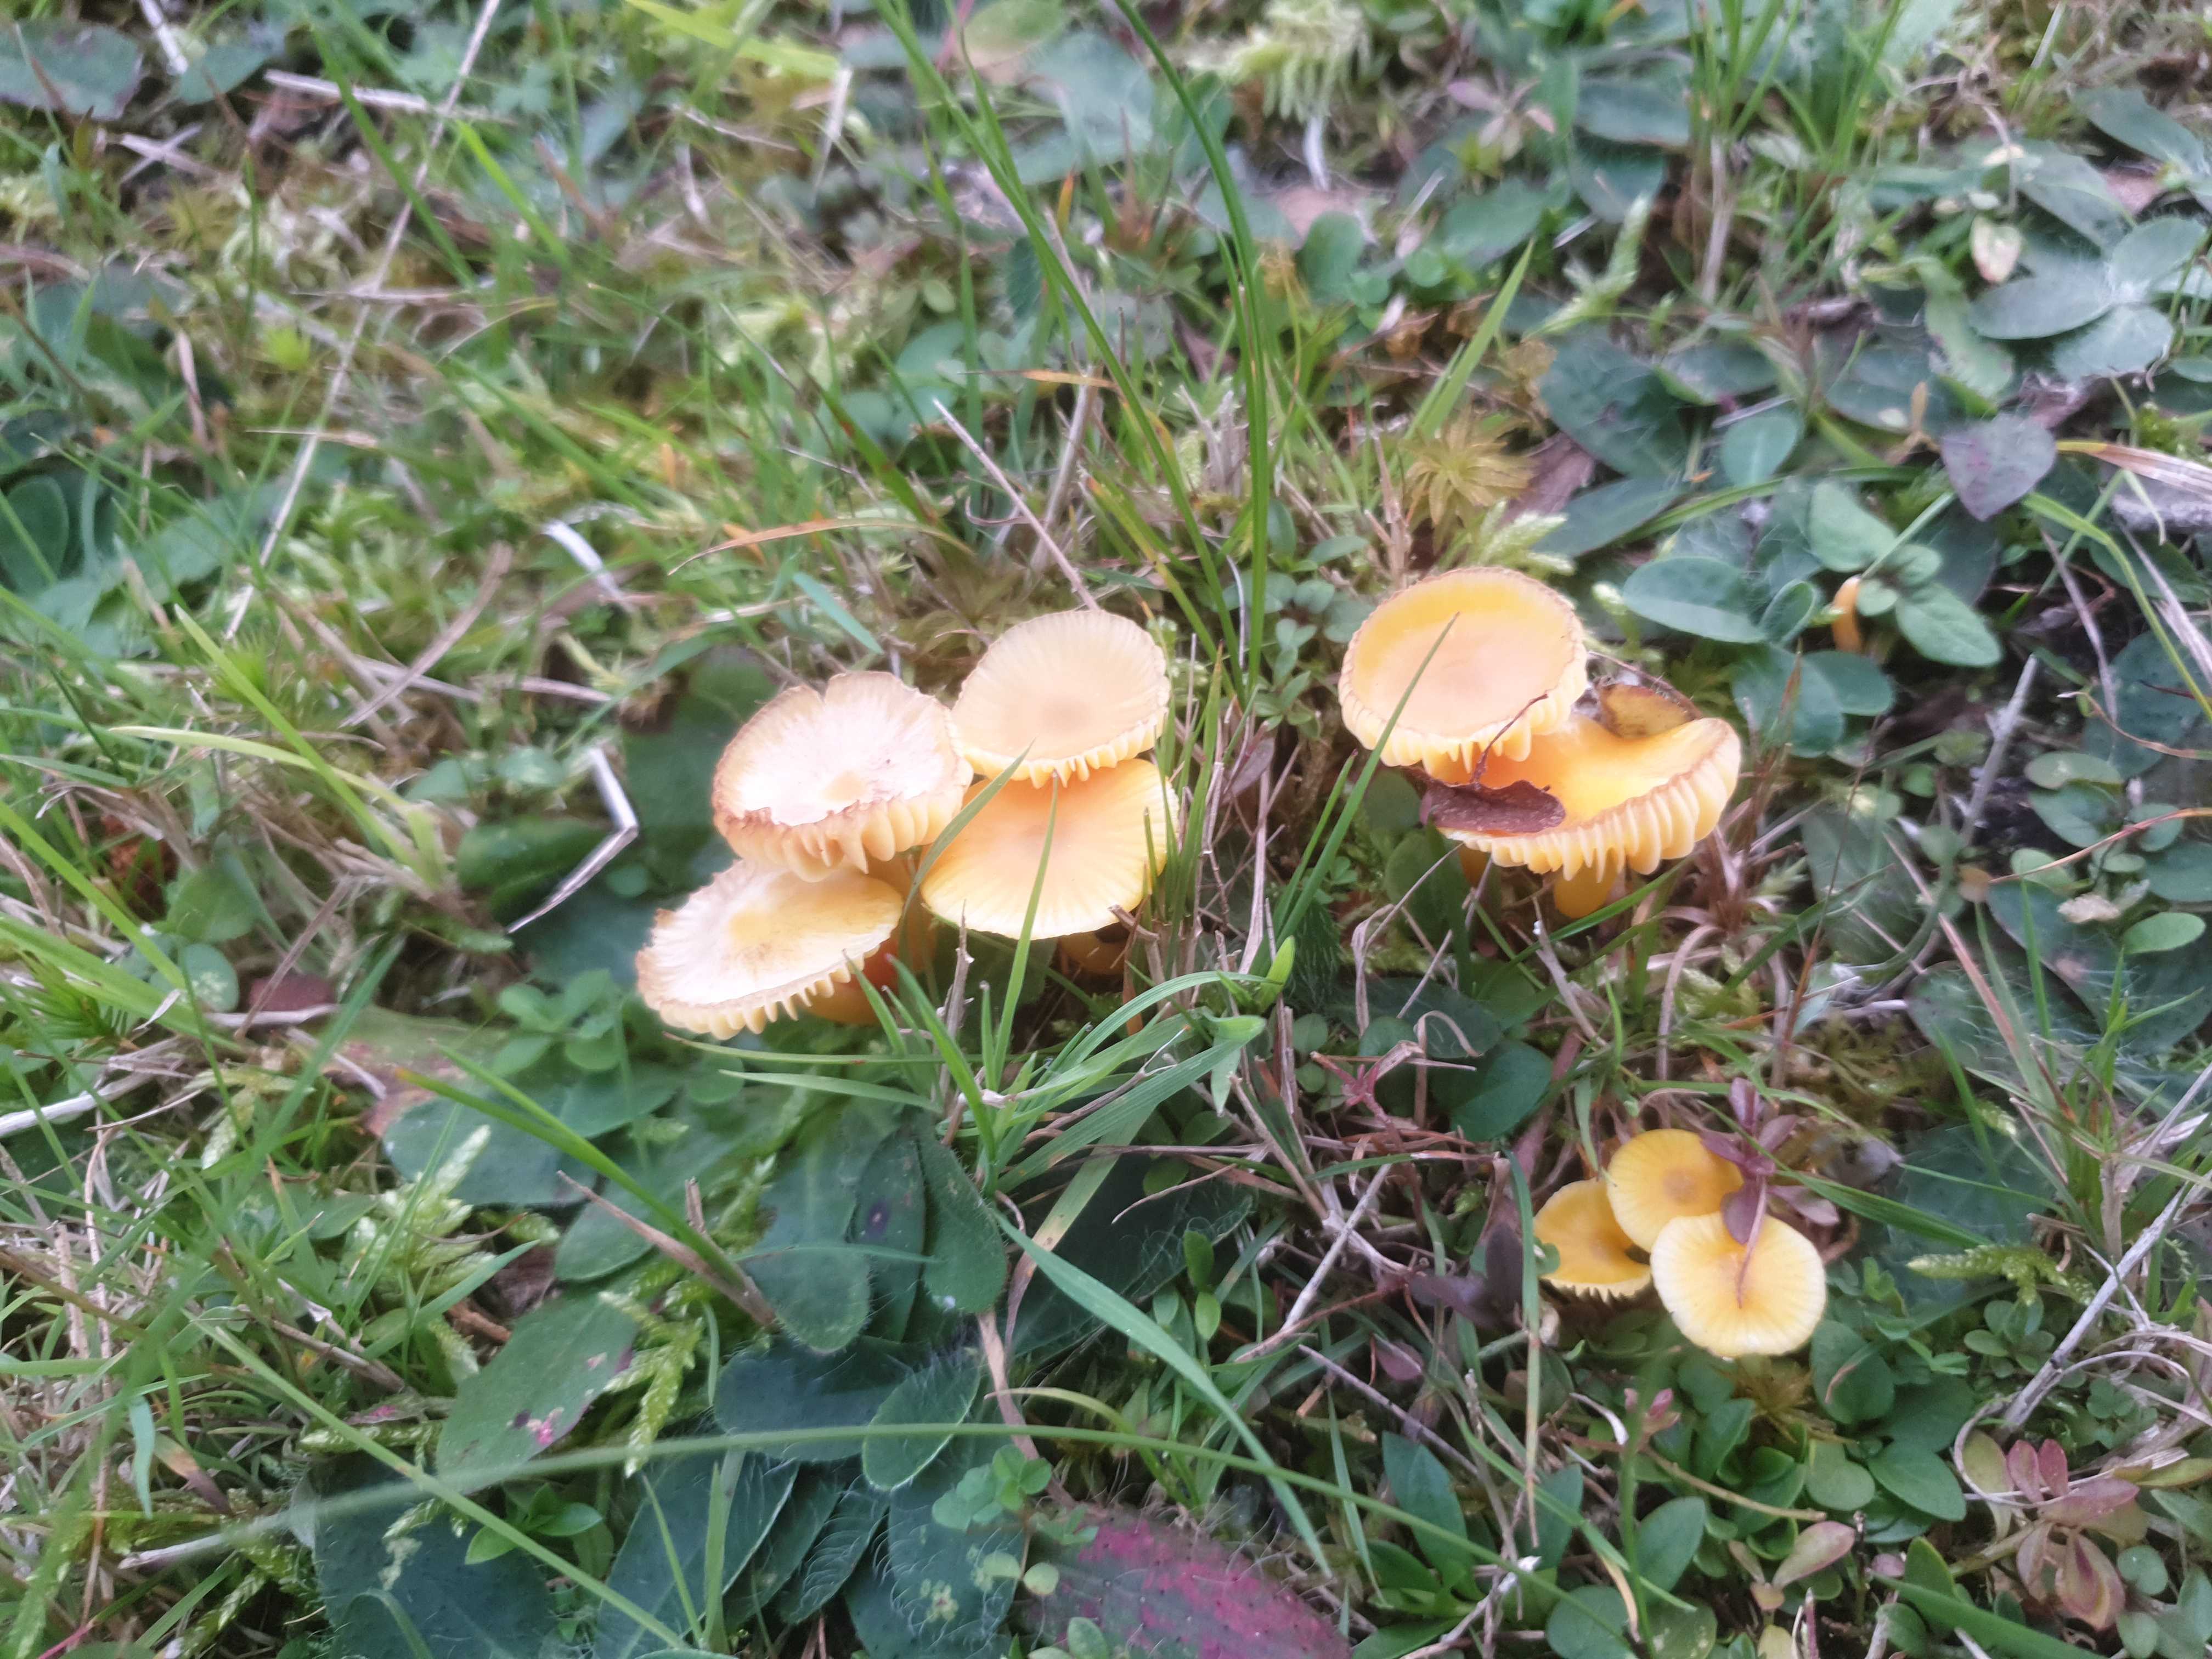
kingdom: Fungi
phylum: Basidiomycota
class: Agaricomycetes
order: Agaricales
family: Hygrophoraceae
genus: Hygrocybe
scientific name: Hygrocybe
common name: vokshat
